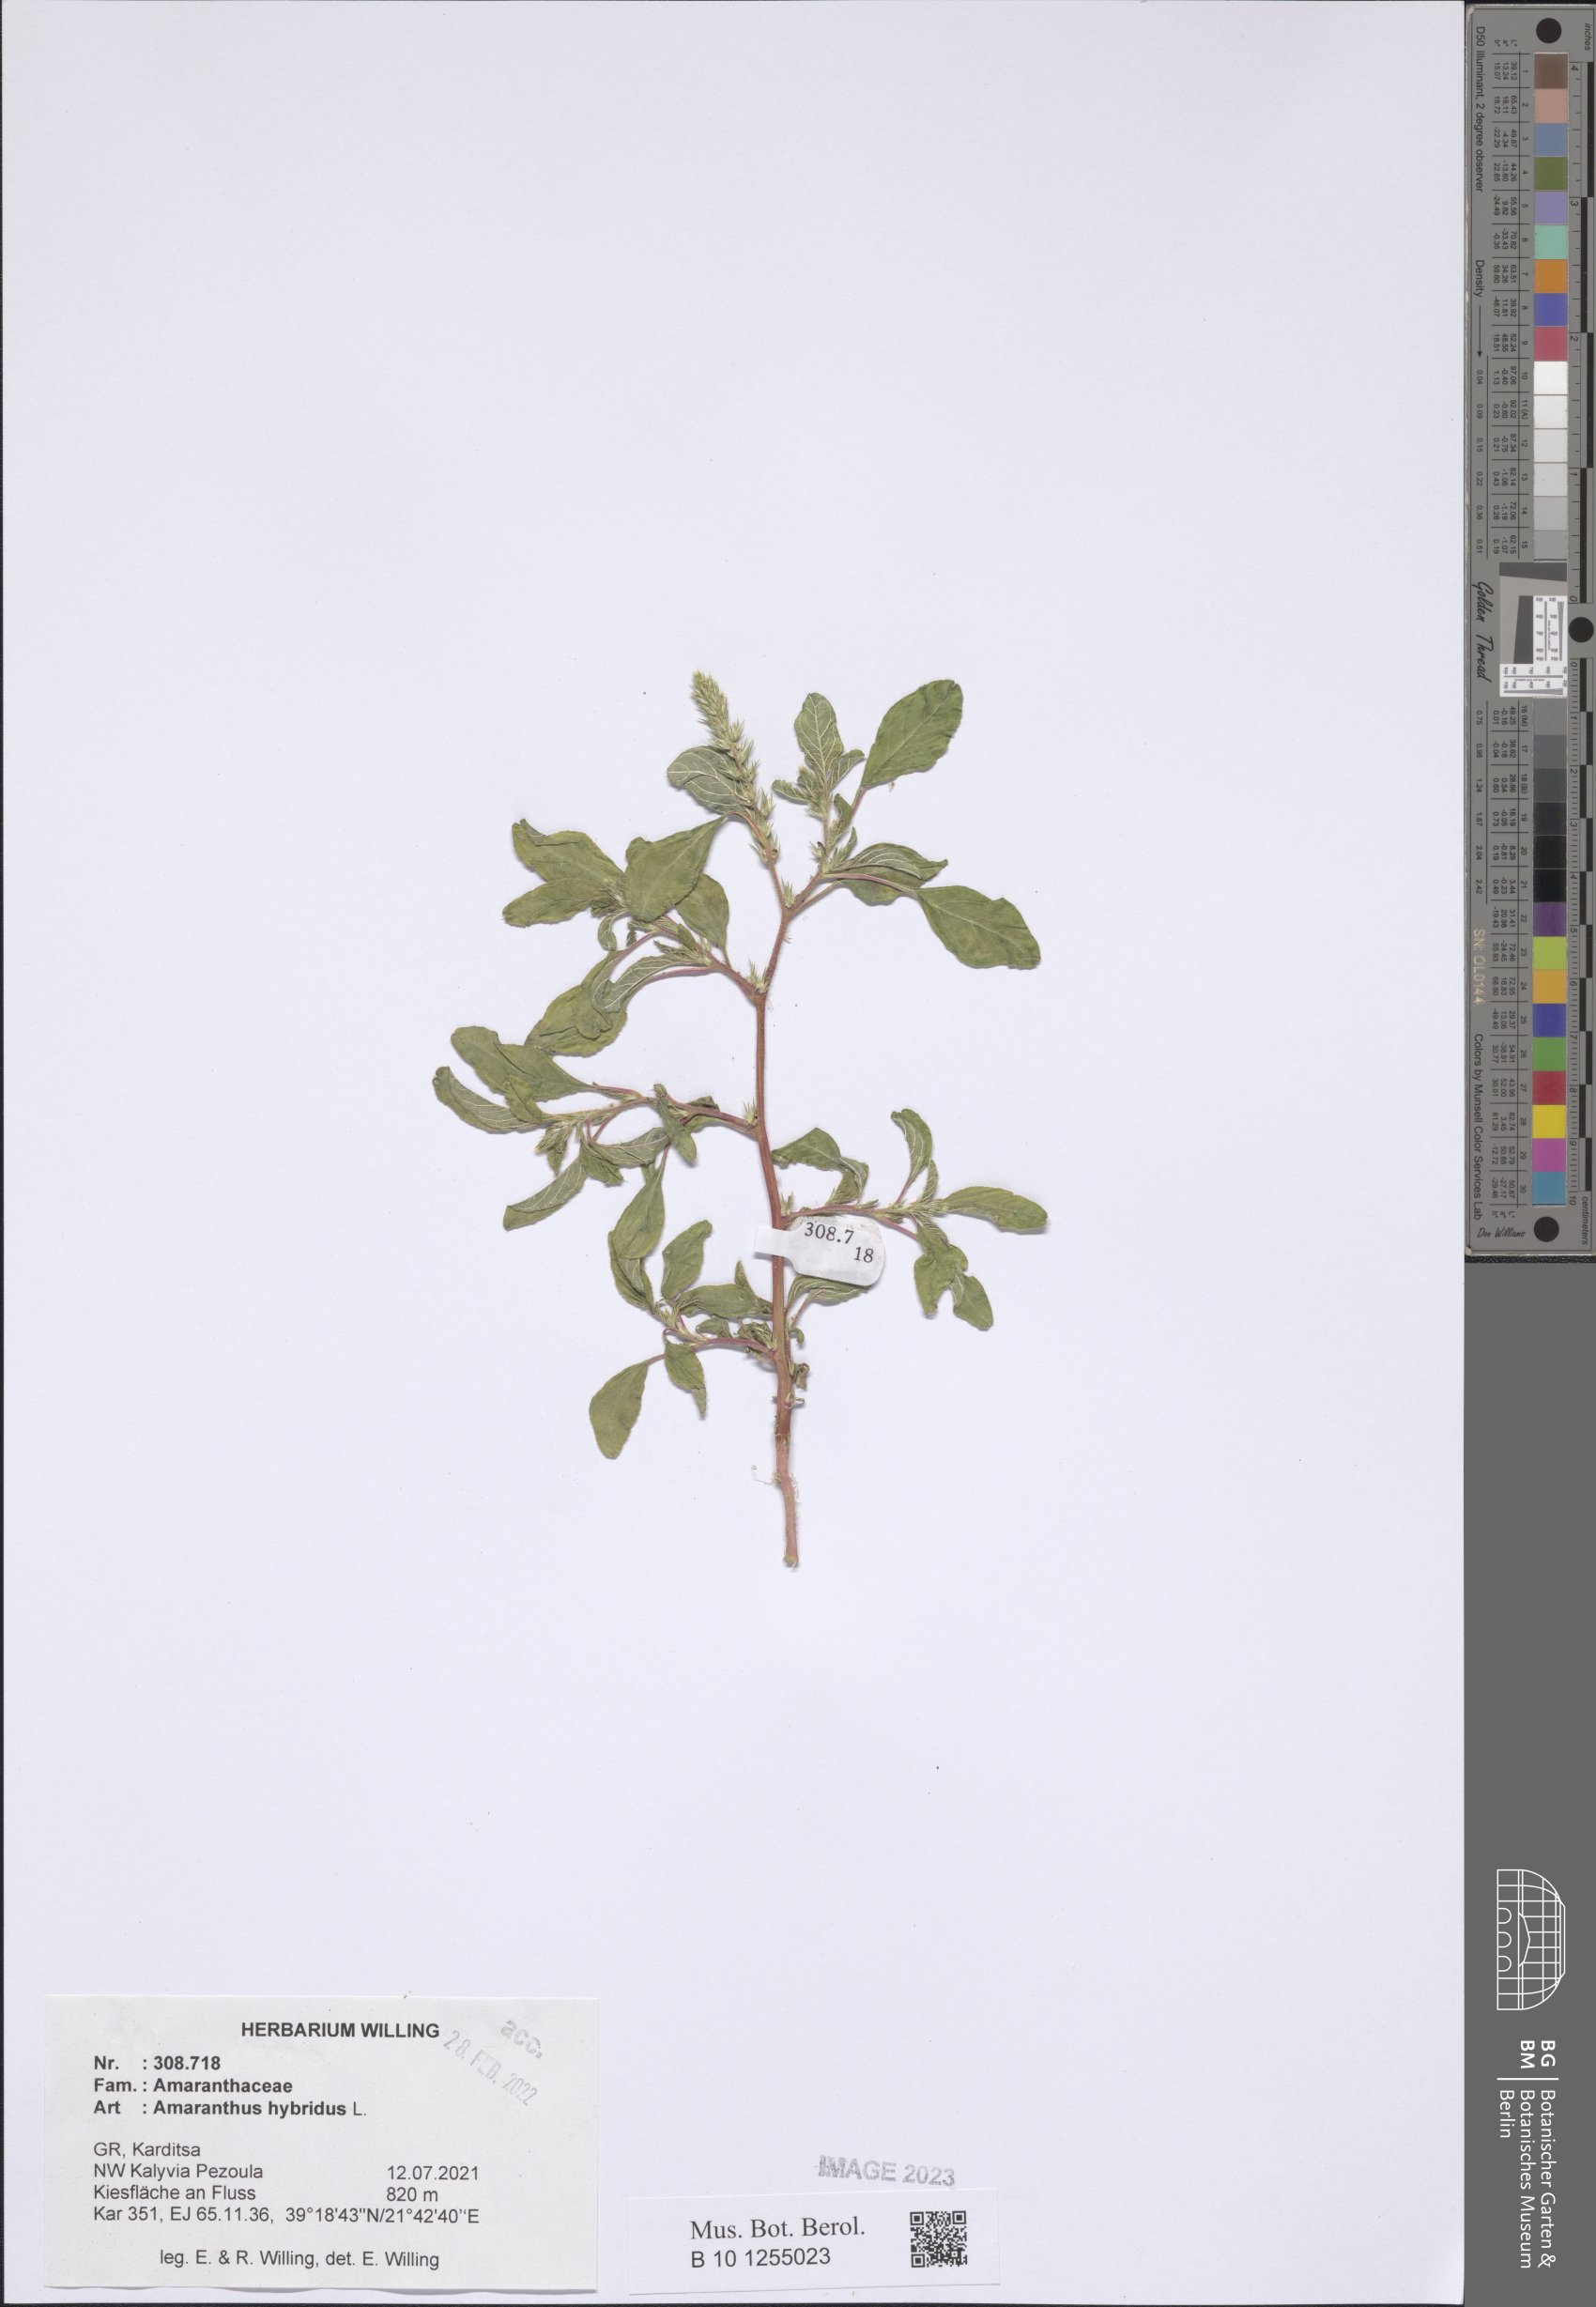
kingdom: Plantae
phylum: Tracheophyta
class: Magnoliopsida
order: Caryophyllales
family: Amaranthaceae
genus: Amaranthus
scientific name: Amaranthus hybridus
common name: Green amaranth
